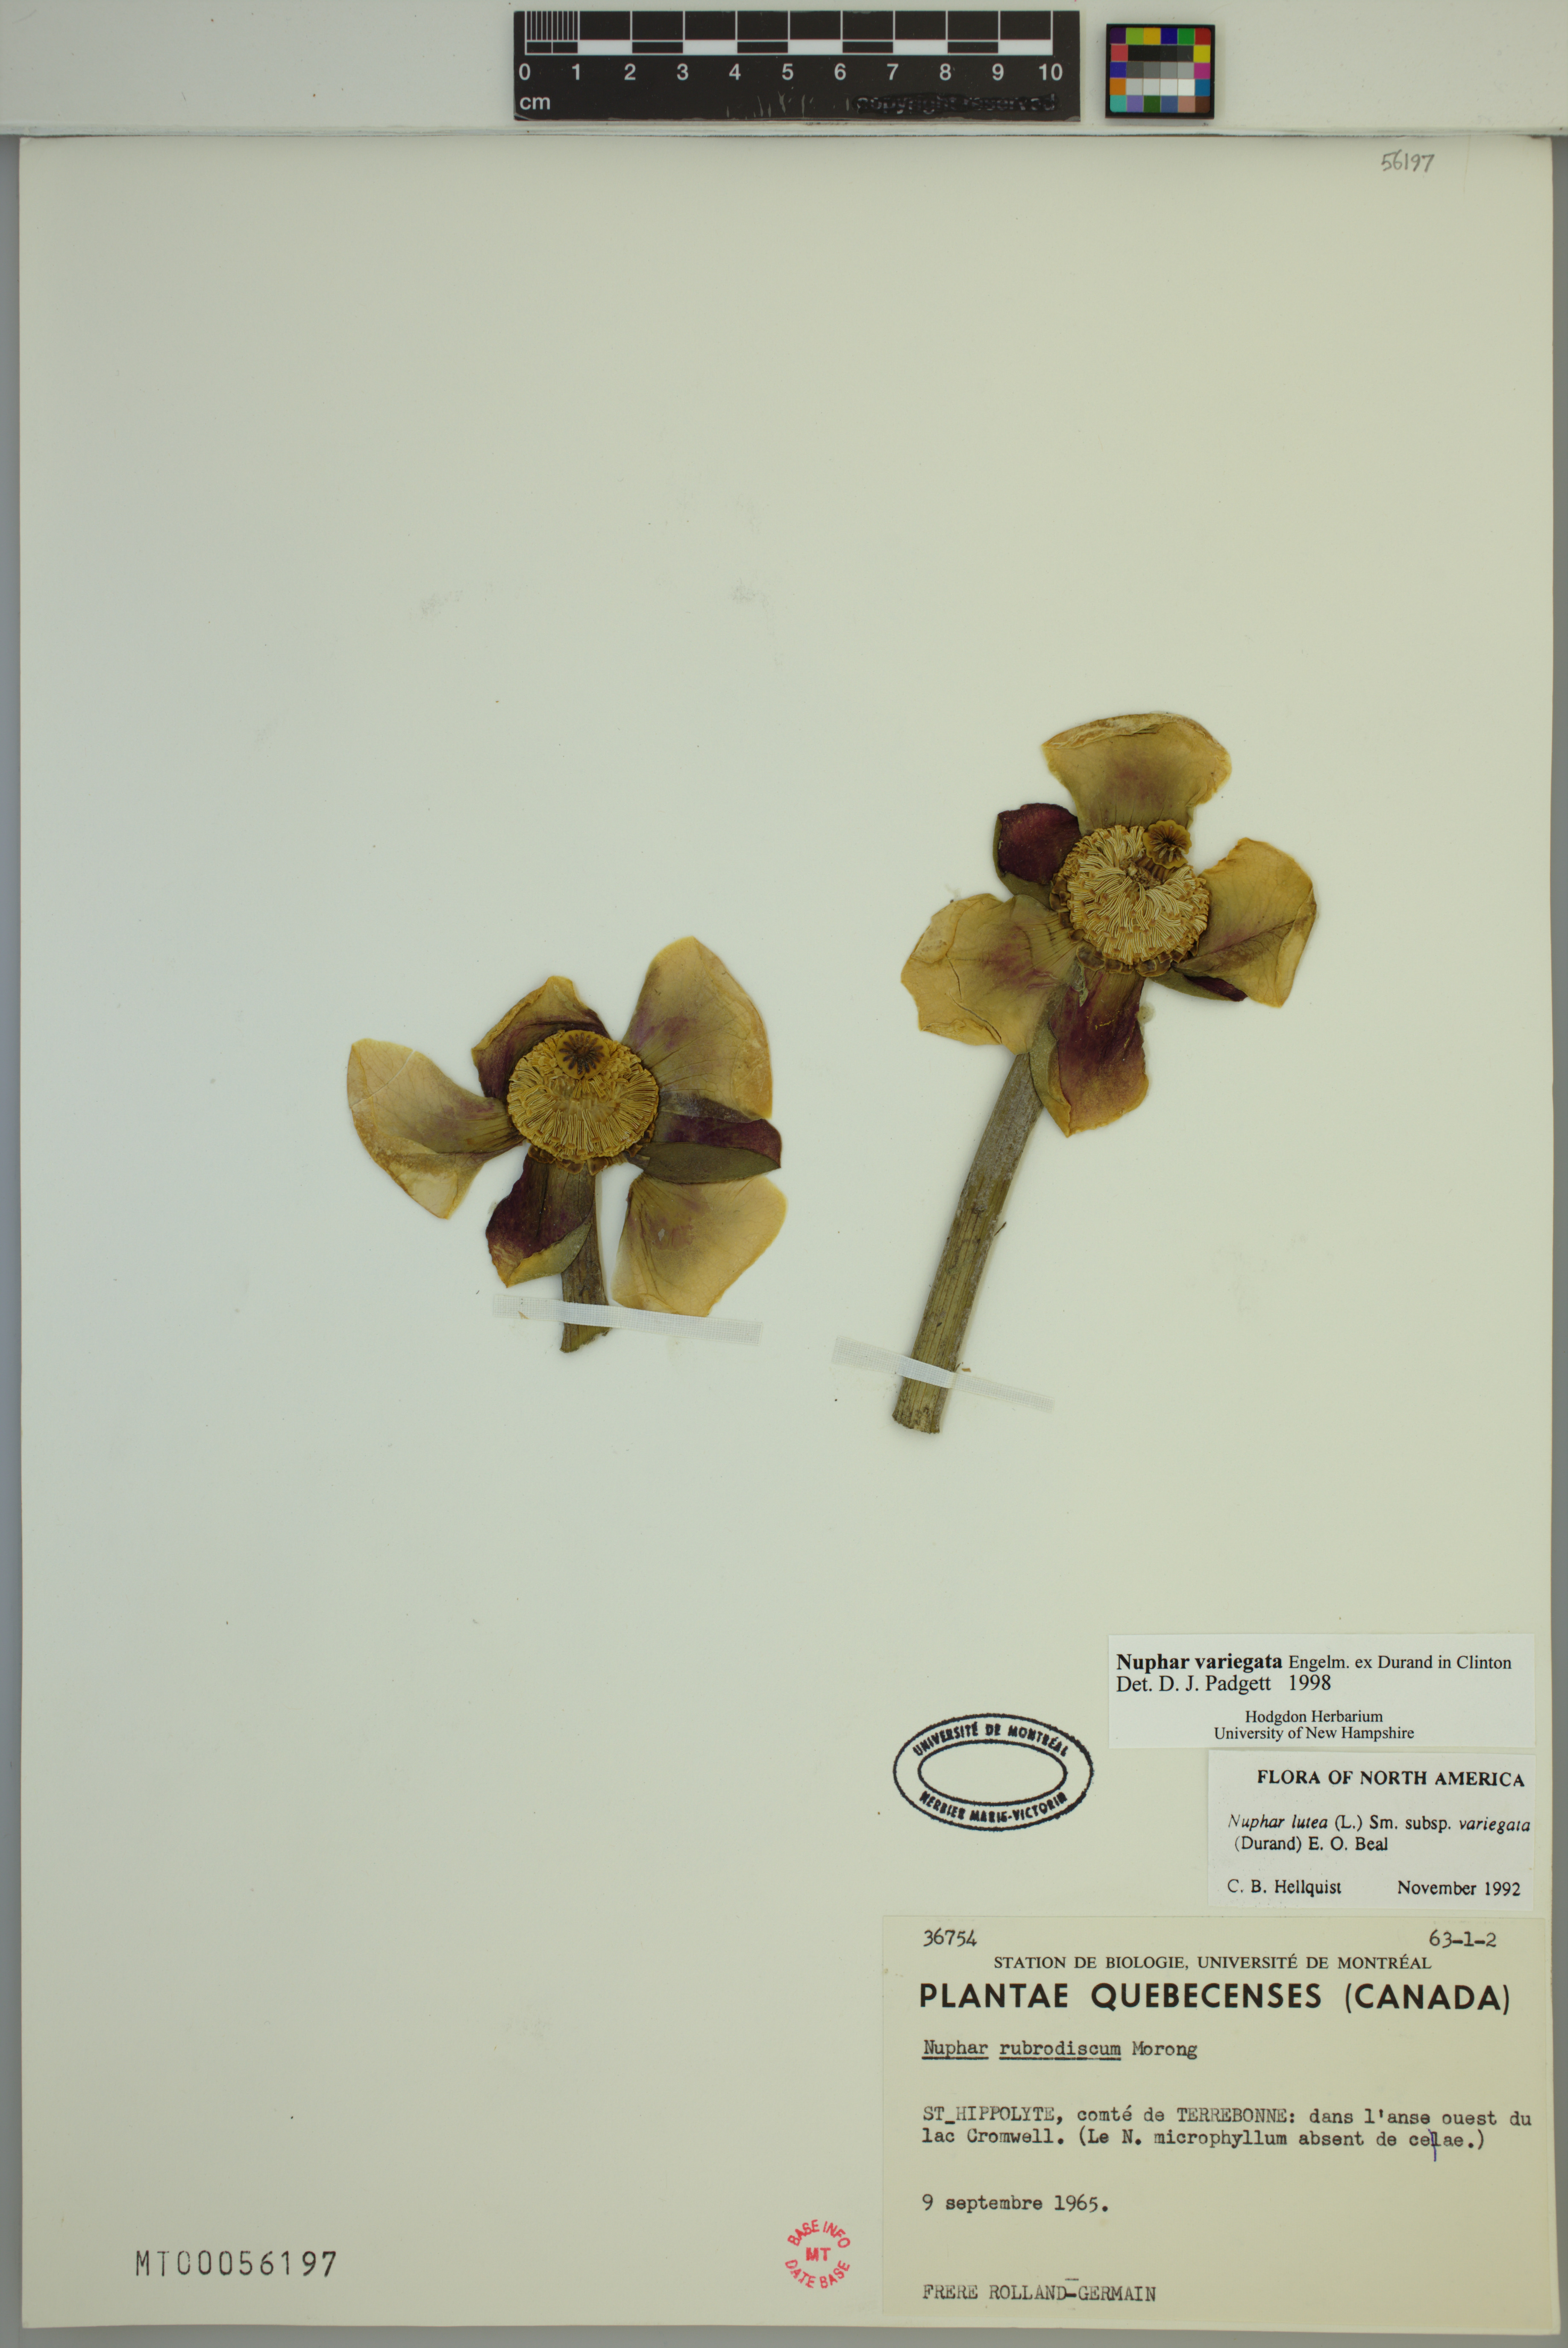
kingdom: Plantae
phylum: Tracheophyta
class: Magnoliopsida
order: Nymphaeales
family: Nymphaeaceae
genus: Nuphar
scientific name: Nuphar variegata
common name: Beaver-root
